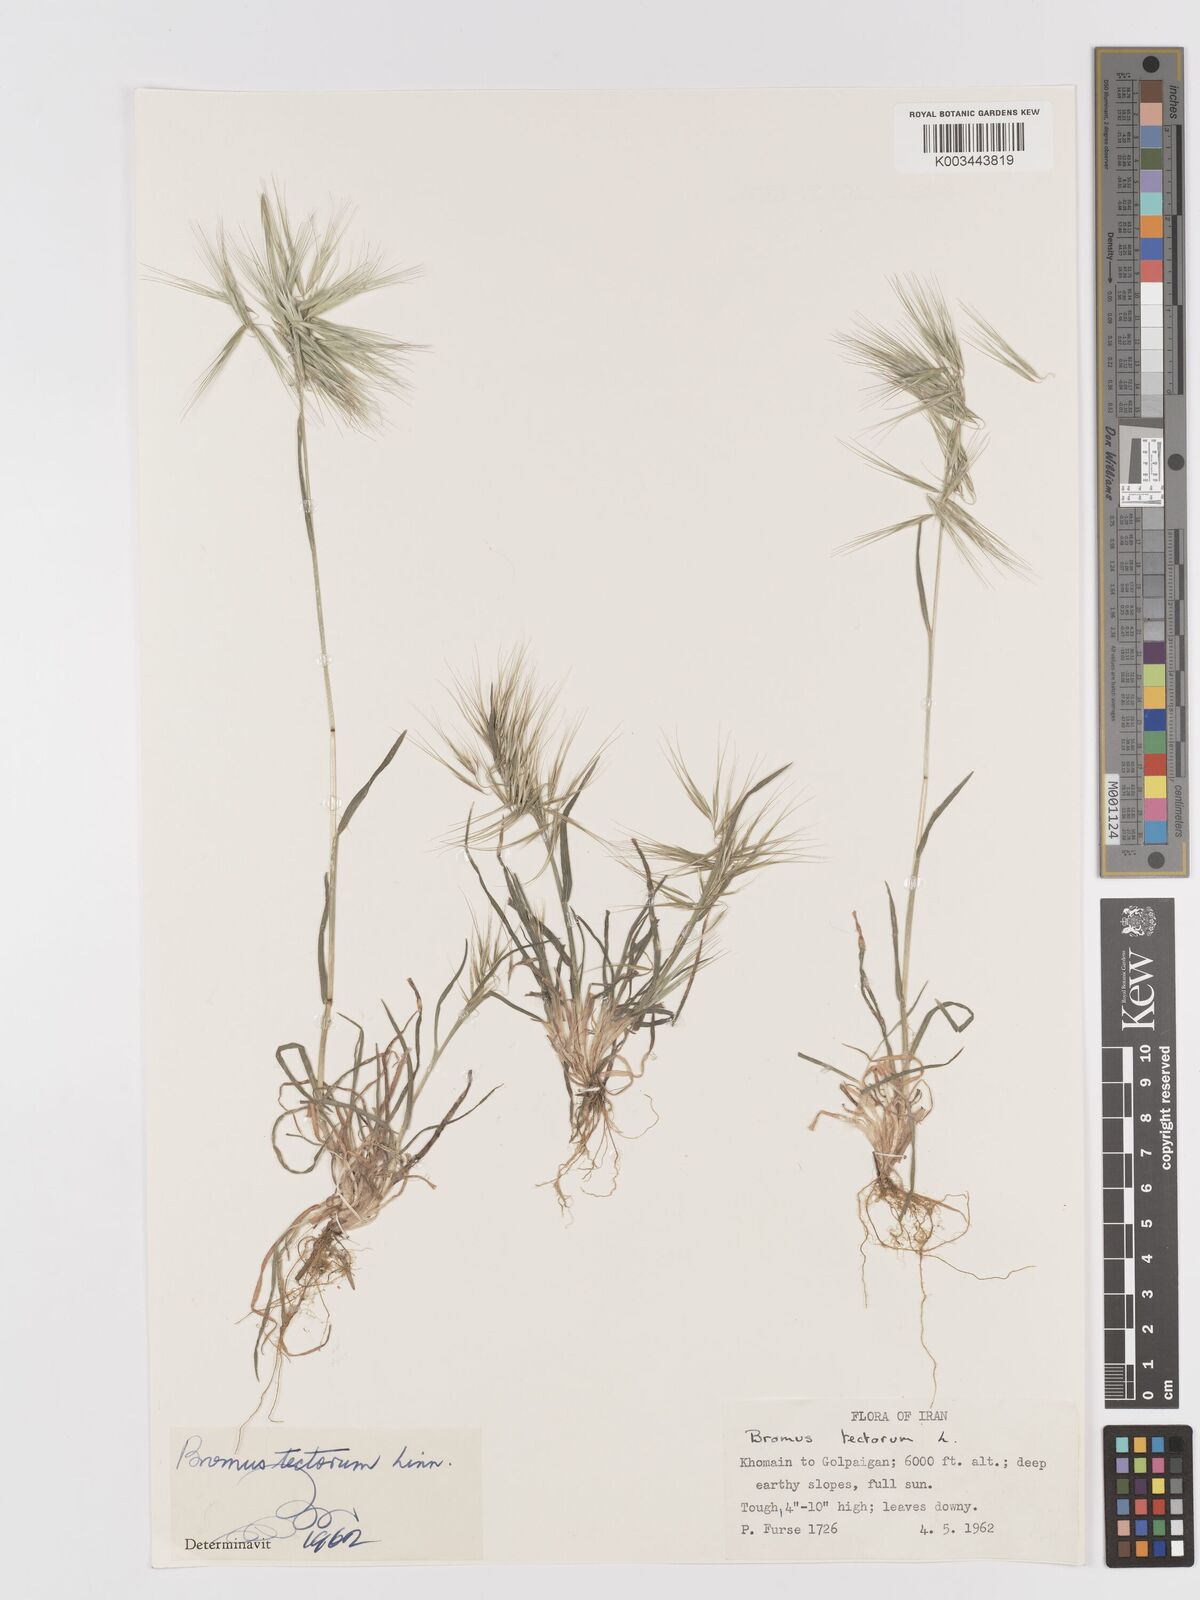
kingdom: Plantae
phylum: Tracheophyta
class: Liliopsida
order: Poales
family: Poaceae
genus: Bromus
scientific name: Bromus tectorum
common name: Cheatgrass
